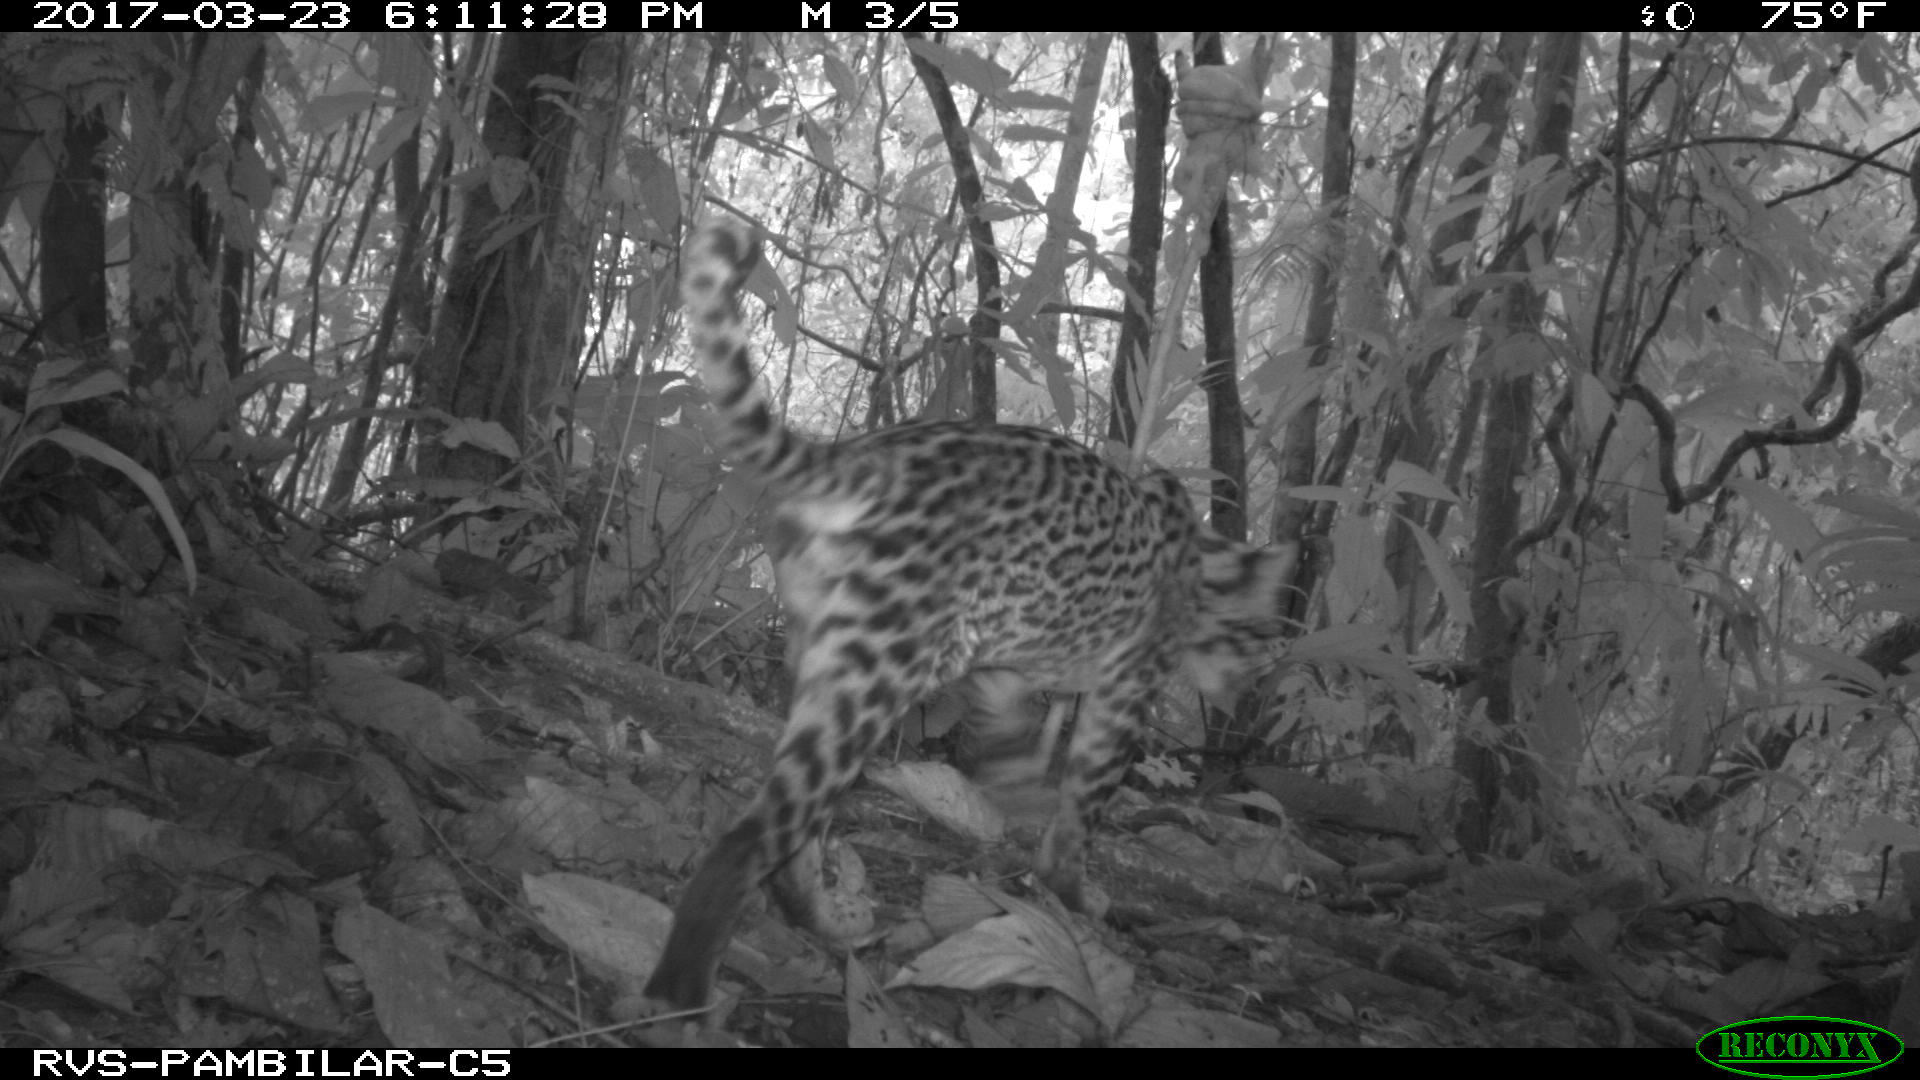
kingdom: Animalia
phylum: Chordata
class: Mammalia
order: Carnivora
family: Felidae
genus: Leopardus
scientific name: Leopardus pardalis
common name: Ocelot
